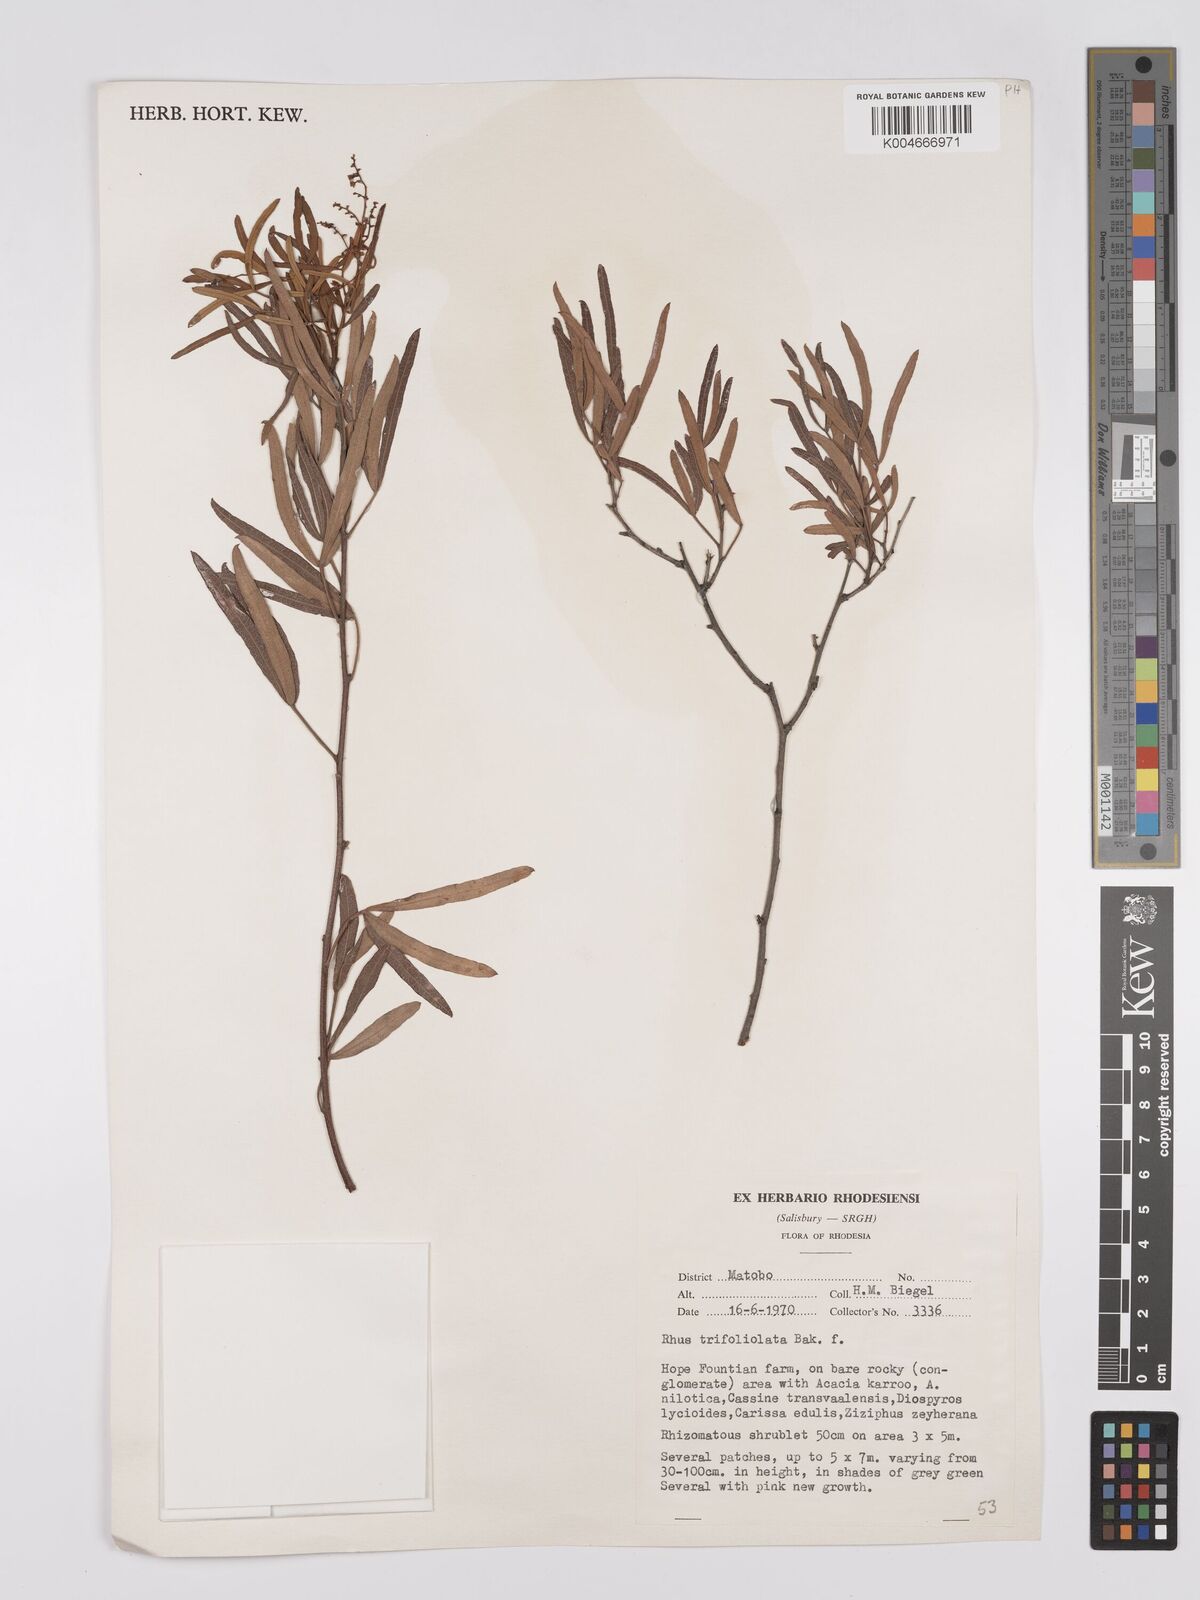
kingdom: Plantae
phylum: Tracheophyta
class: Magnoliopsida
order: Sapindales
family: Anacardiaceae
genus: Searsia
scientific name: Searsia magalismontana
